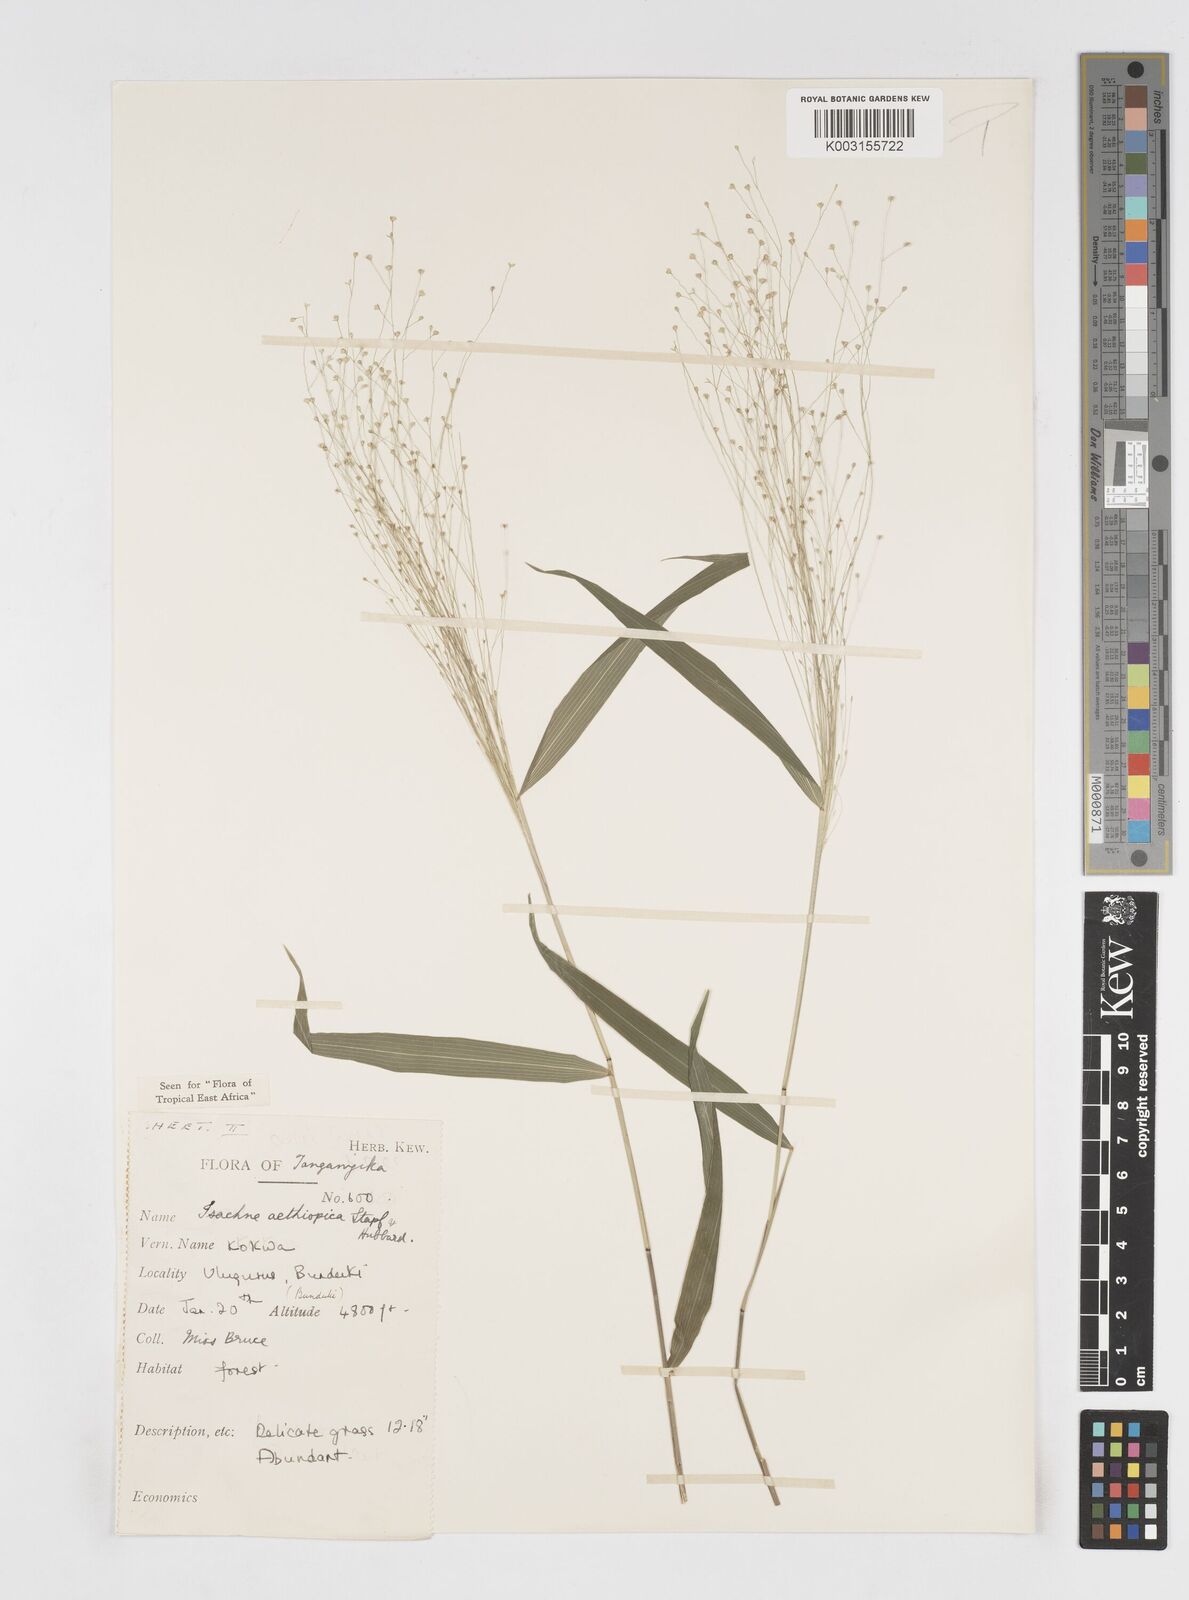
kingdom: Plantae
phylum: Tracheophyta
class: Liliopsida
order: Poales
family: Poaceae
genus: Isachne
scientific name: Isachne mauritiana
